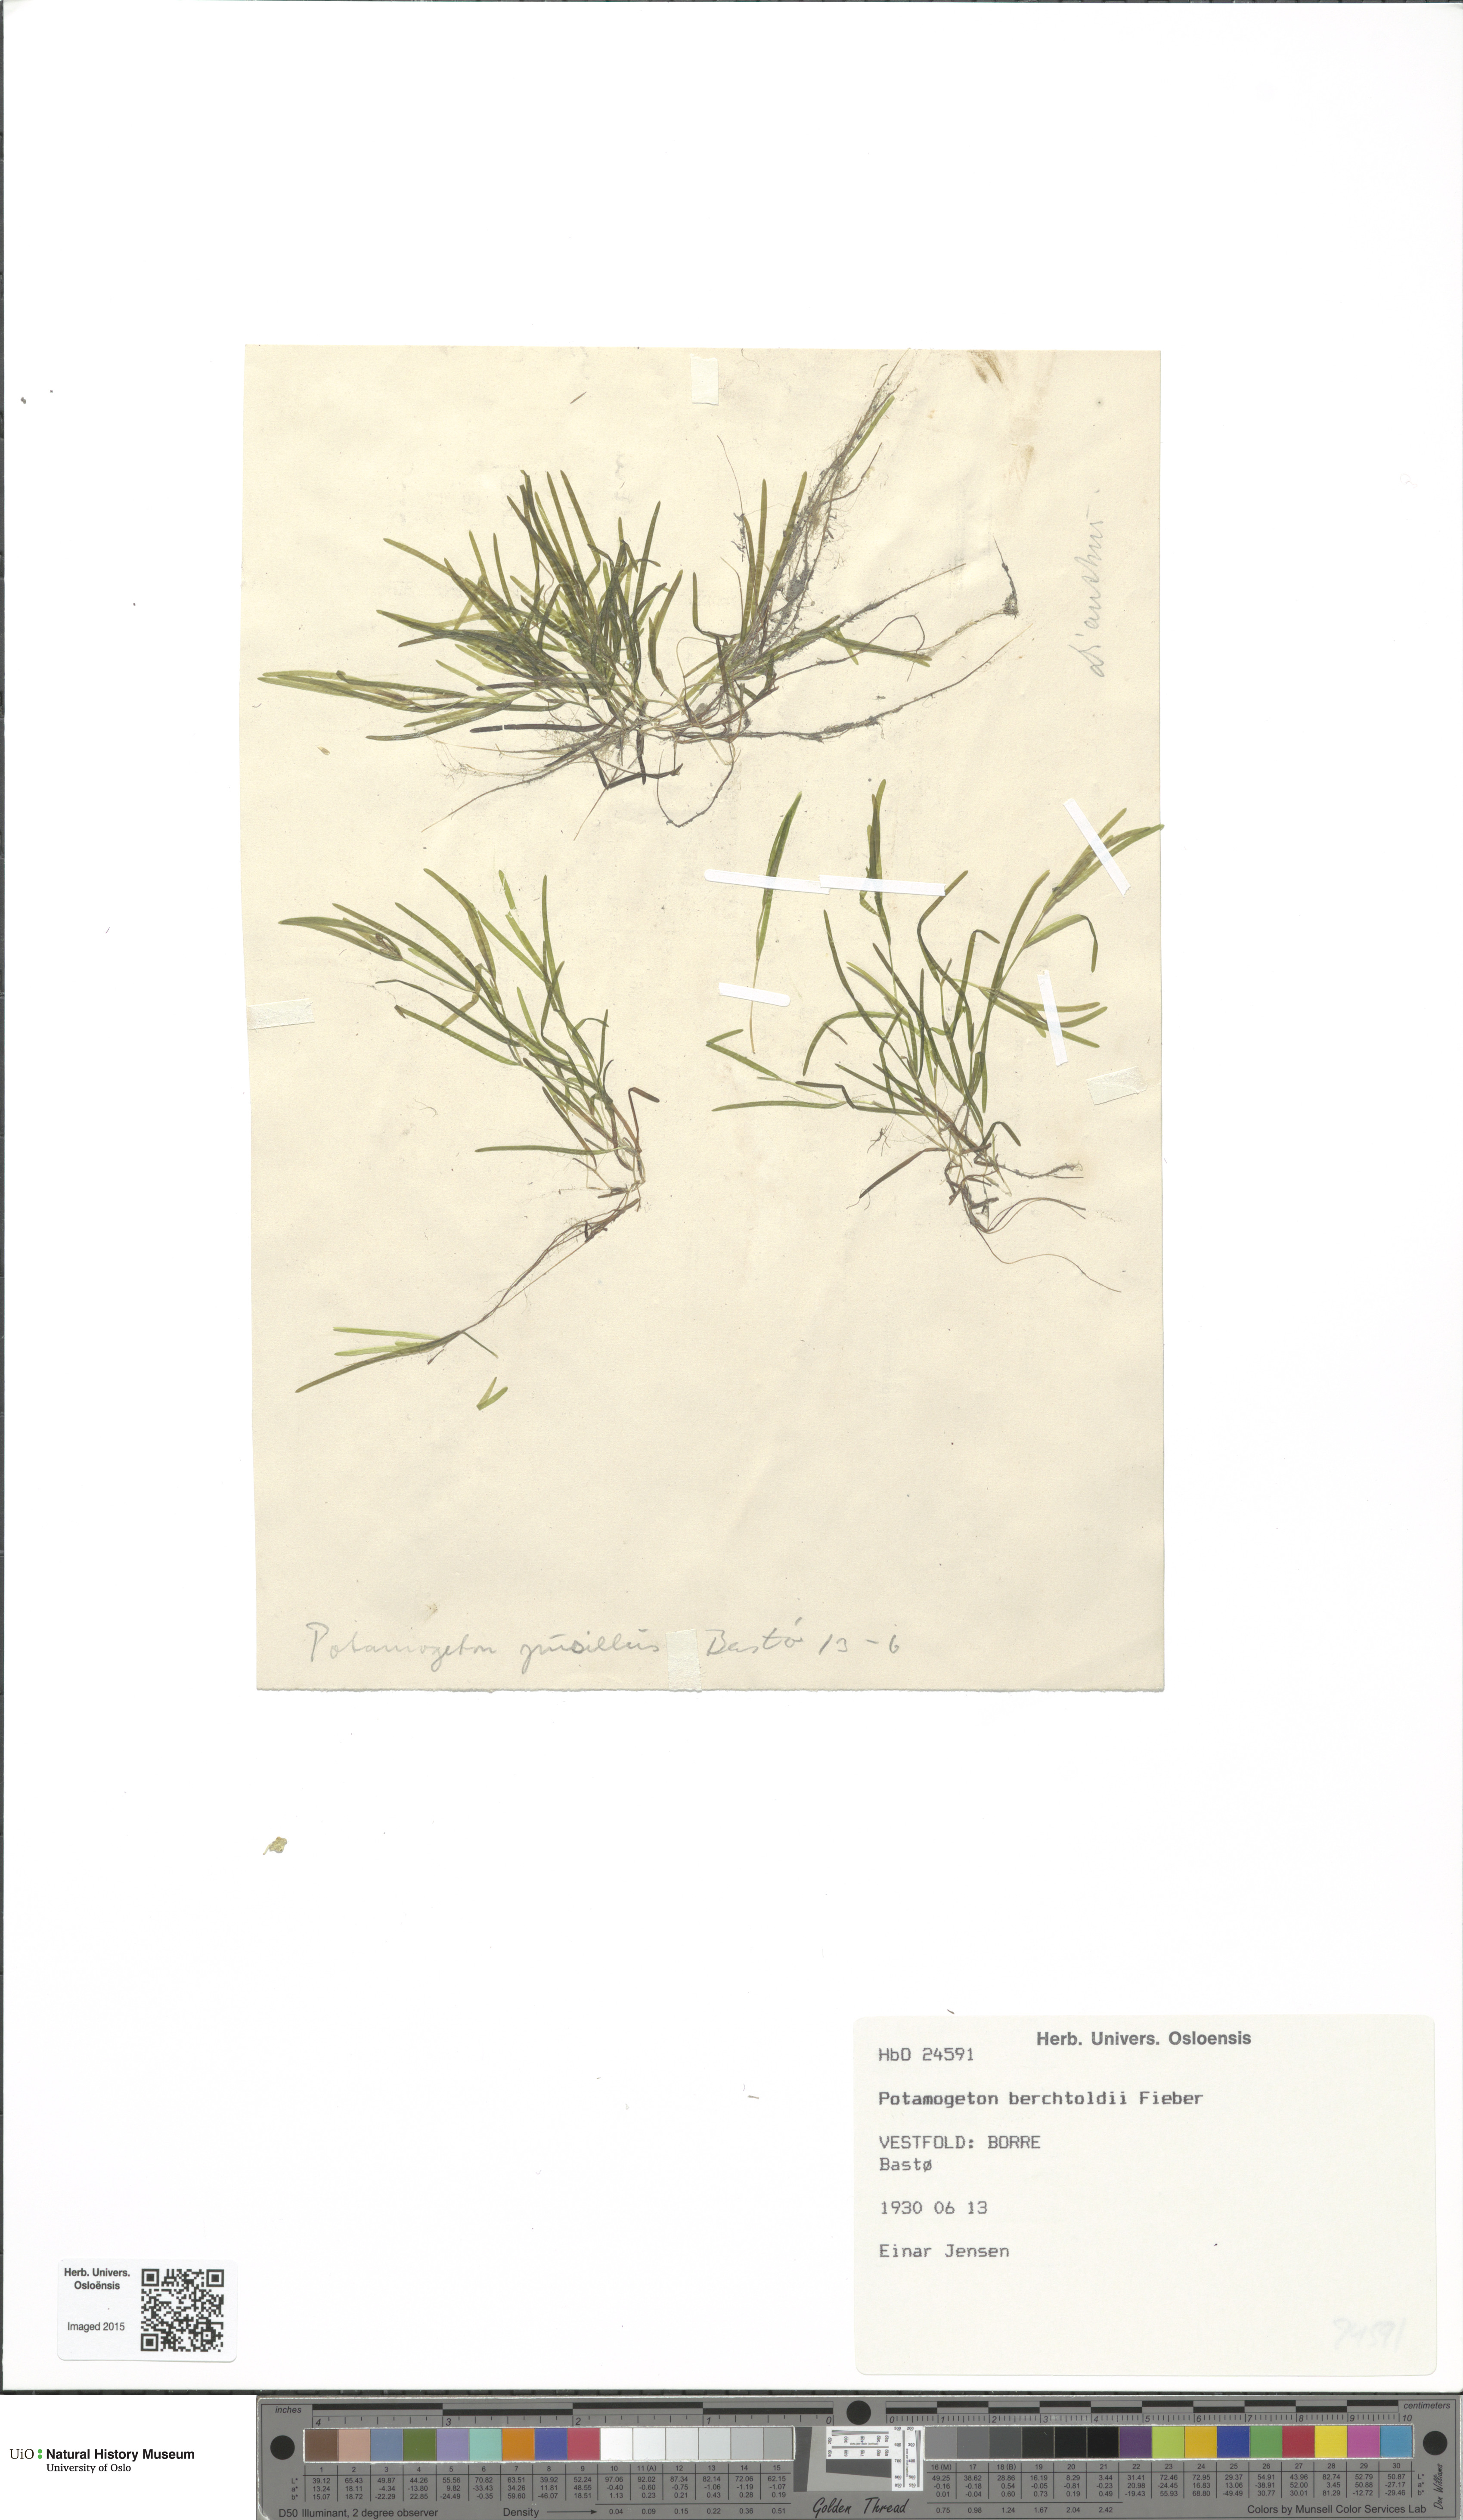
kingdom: Plantae
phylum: Tracheophyta
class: Liliopsida
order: Alismatales
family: Potamogetonaceae
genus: Potamogeton
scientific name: Potamogeton berchtoldii
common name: Small pondweed
